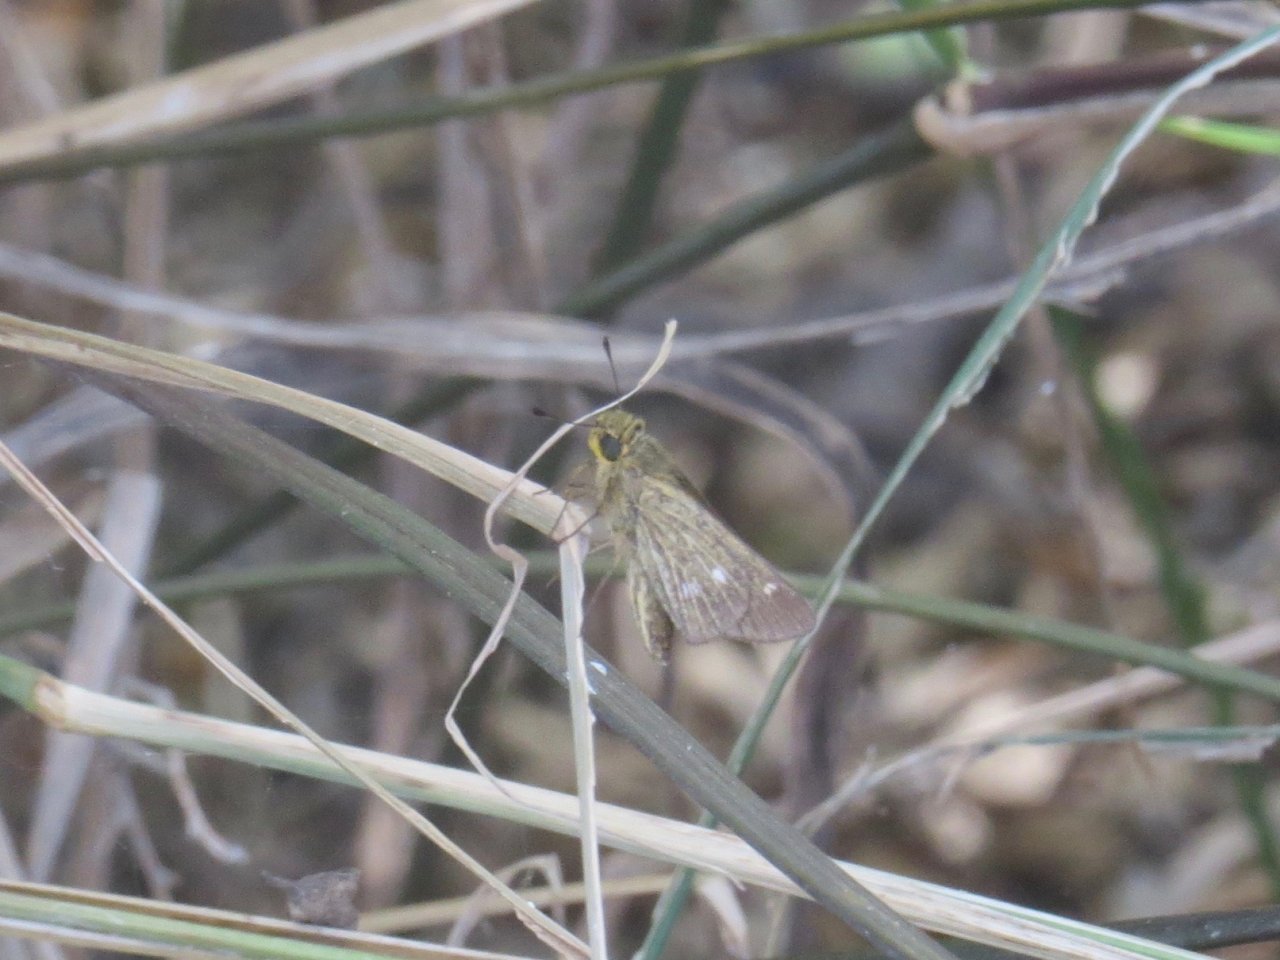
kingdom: Animalia
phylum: Arthropoda
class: Insecta
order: Lepidoptera
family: Hesperiidae
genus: Panoquina
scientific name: Panoquina panoquinoides
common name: Obscure Skipper
